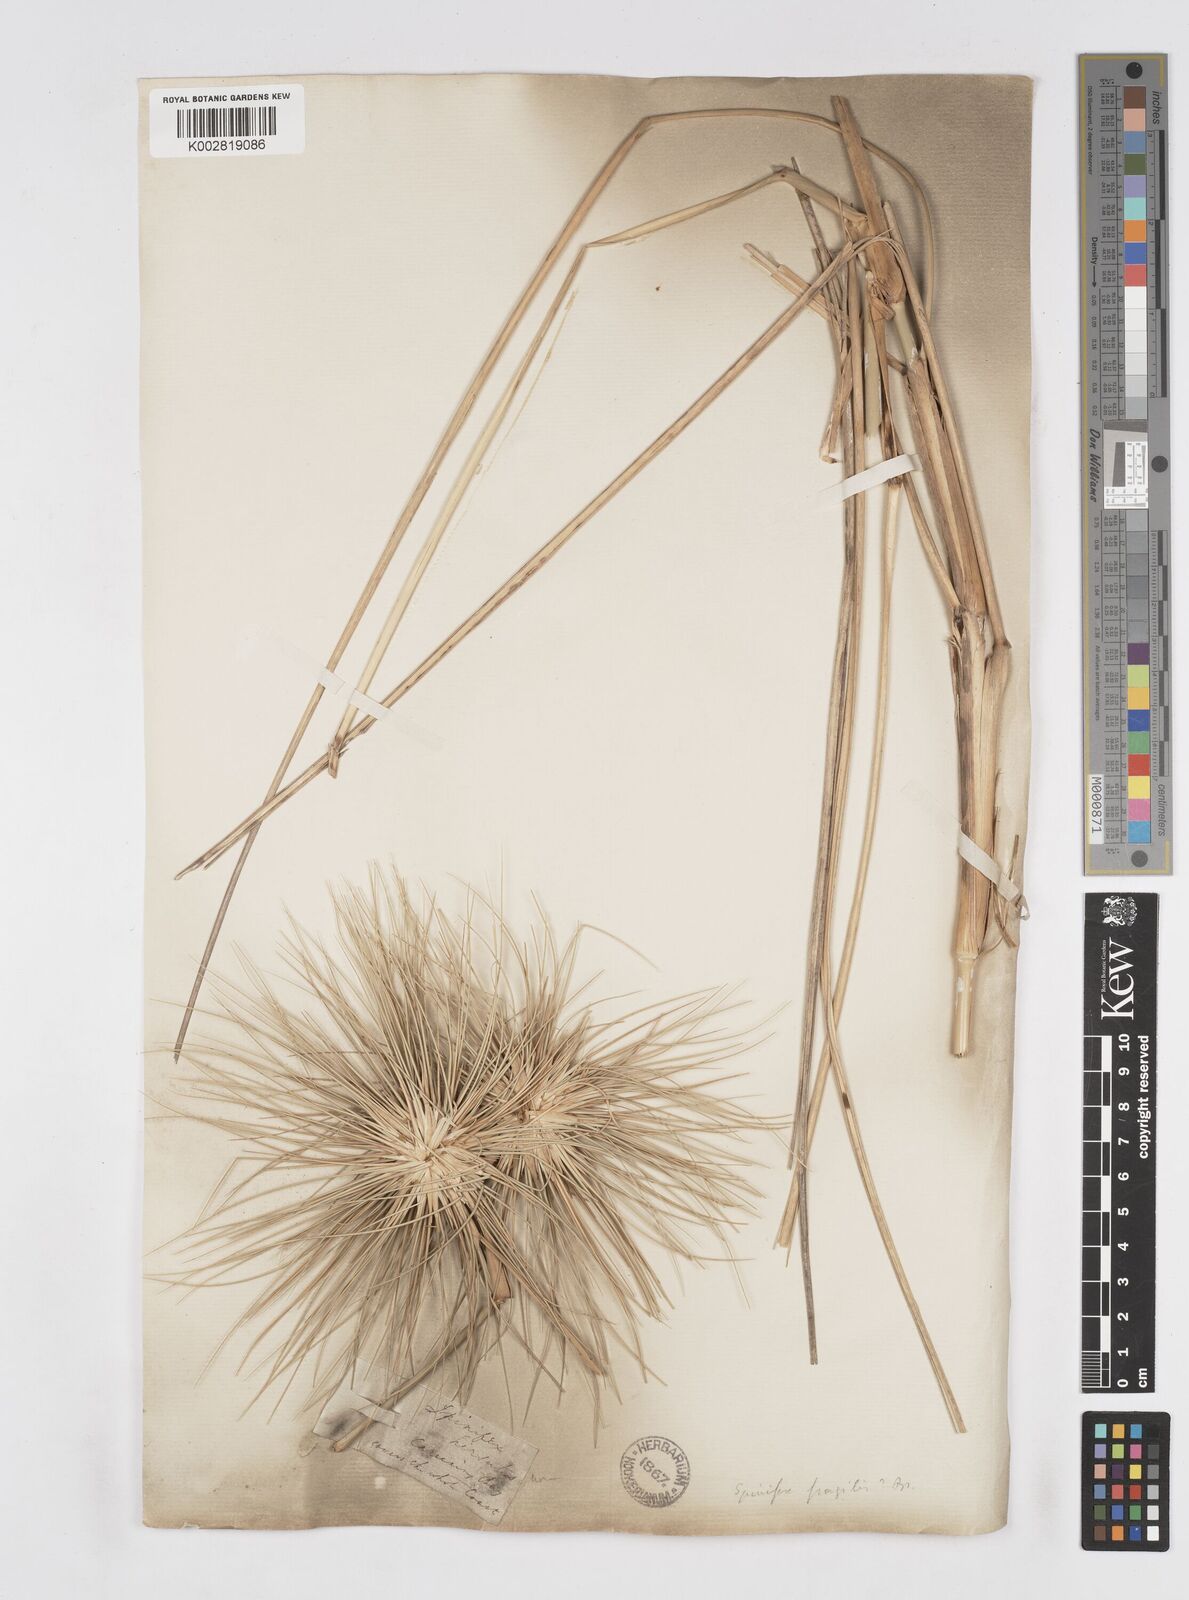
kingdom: Plantae
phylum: Tracheophyta
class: Liliopsida
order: Poales
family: Poaceae
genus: Spinifex
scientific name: Spinifex longifolius
